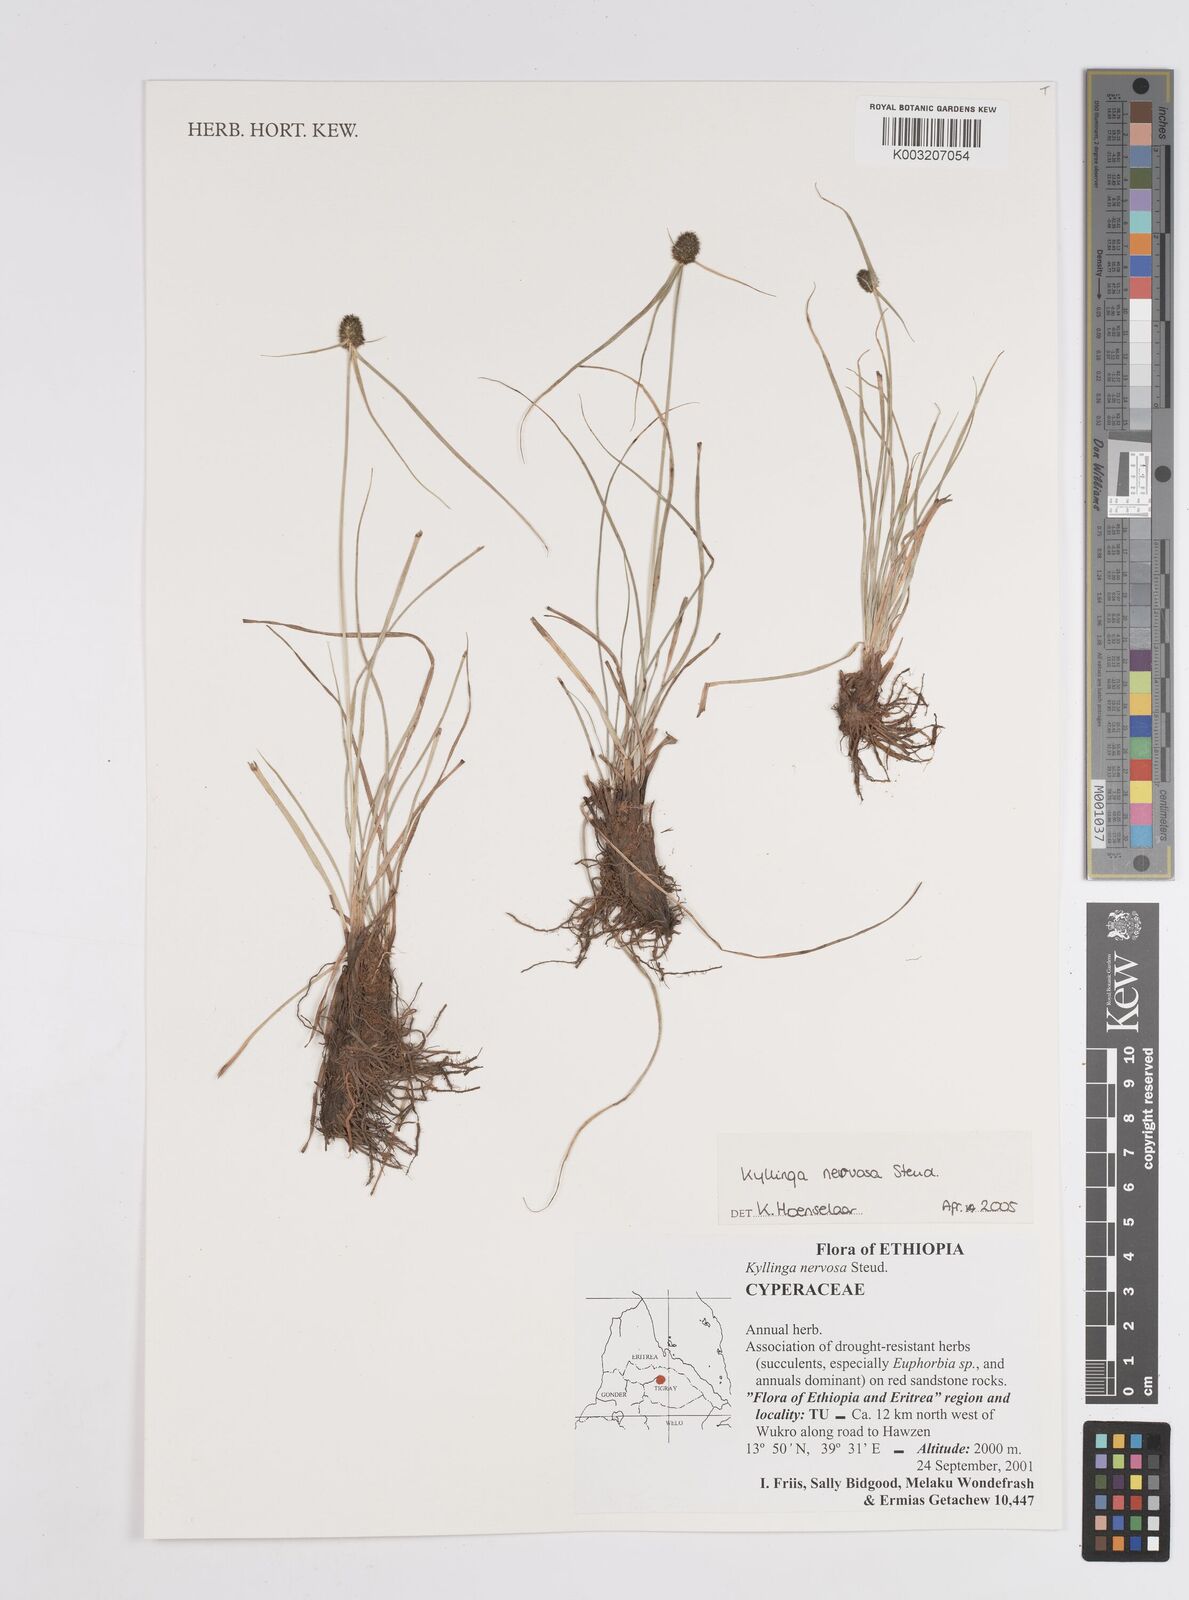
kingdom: Plantae
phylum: Tracheophyta
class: Liliopsida
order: Poales
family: Cyperaceae
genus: Cyperus
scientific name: Cyperus costatus
